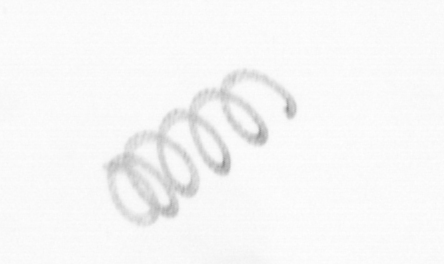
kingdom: Chromista
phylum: Ochrophyta
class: Bacillariophyceae
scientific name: Bacillariophyceae
